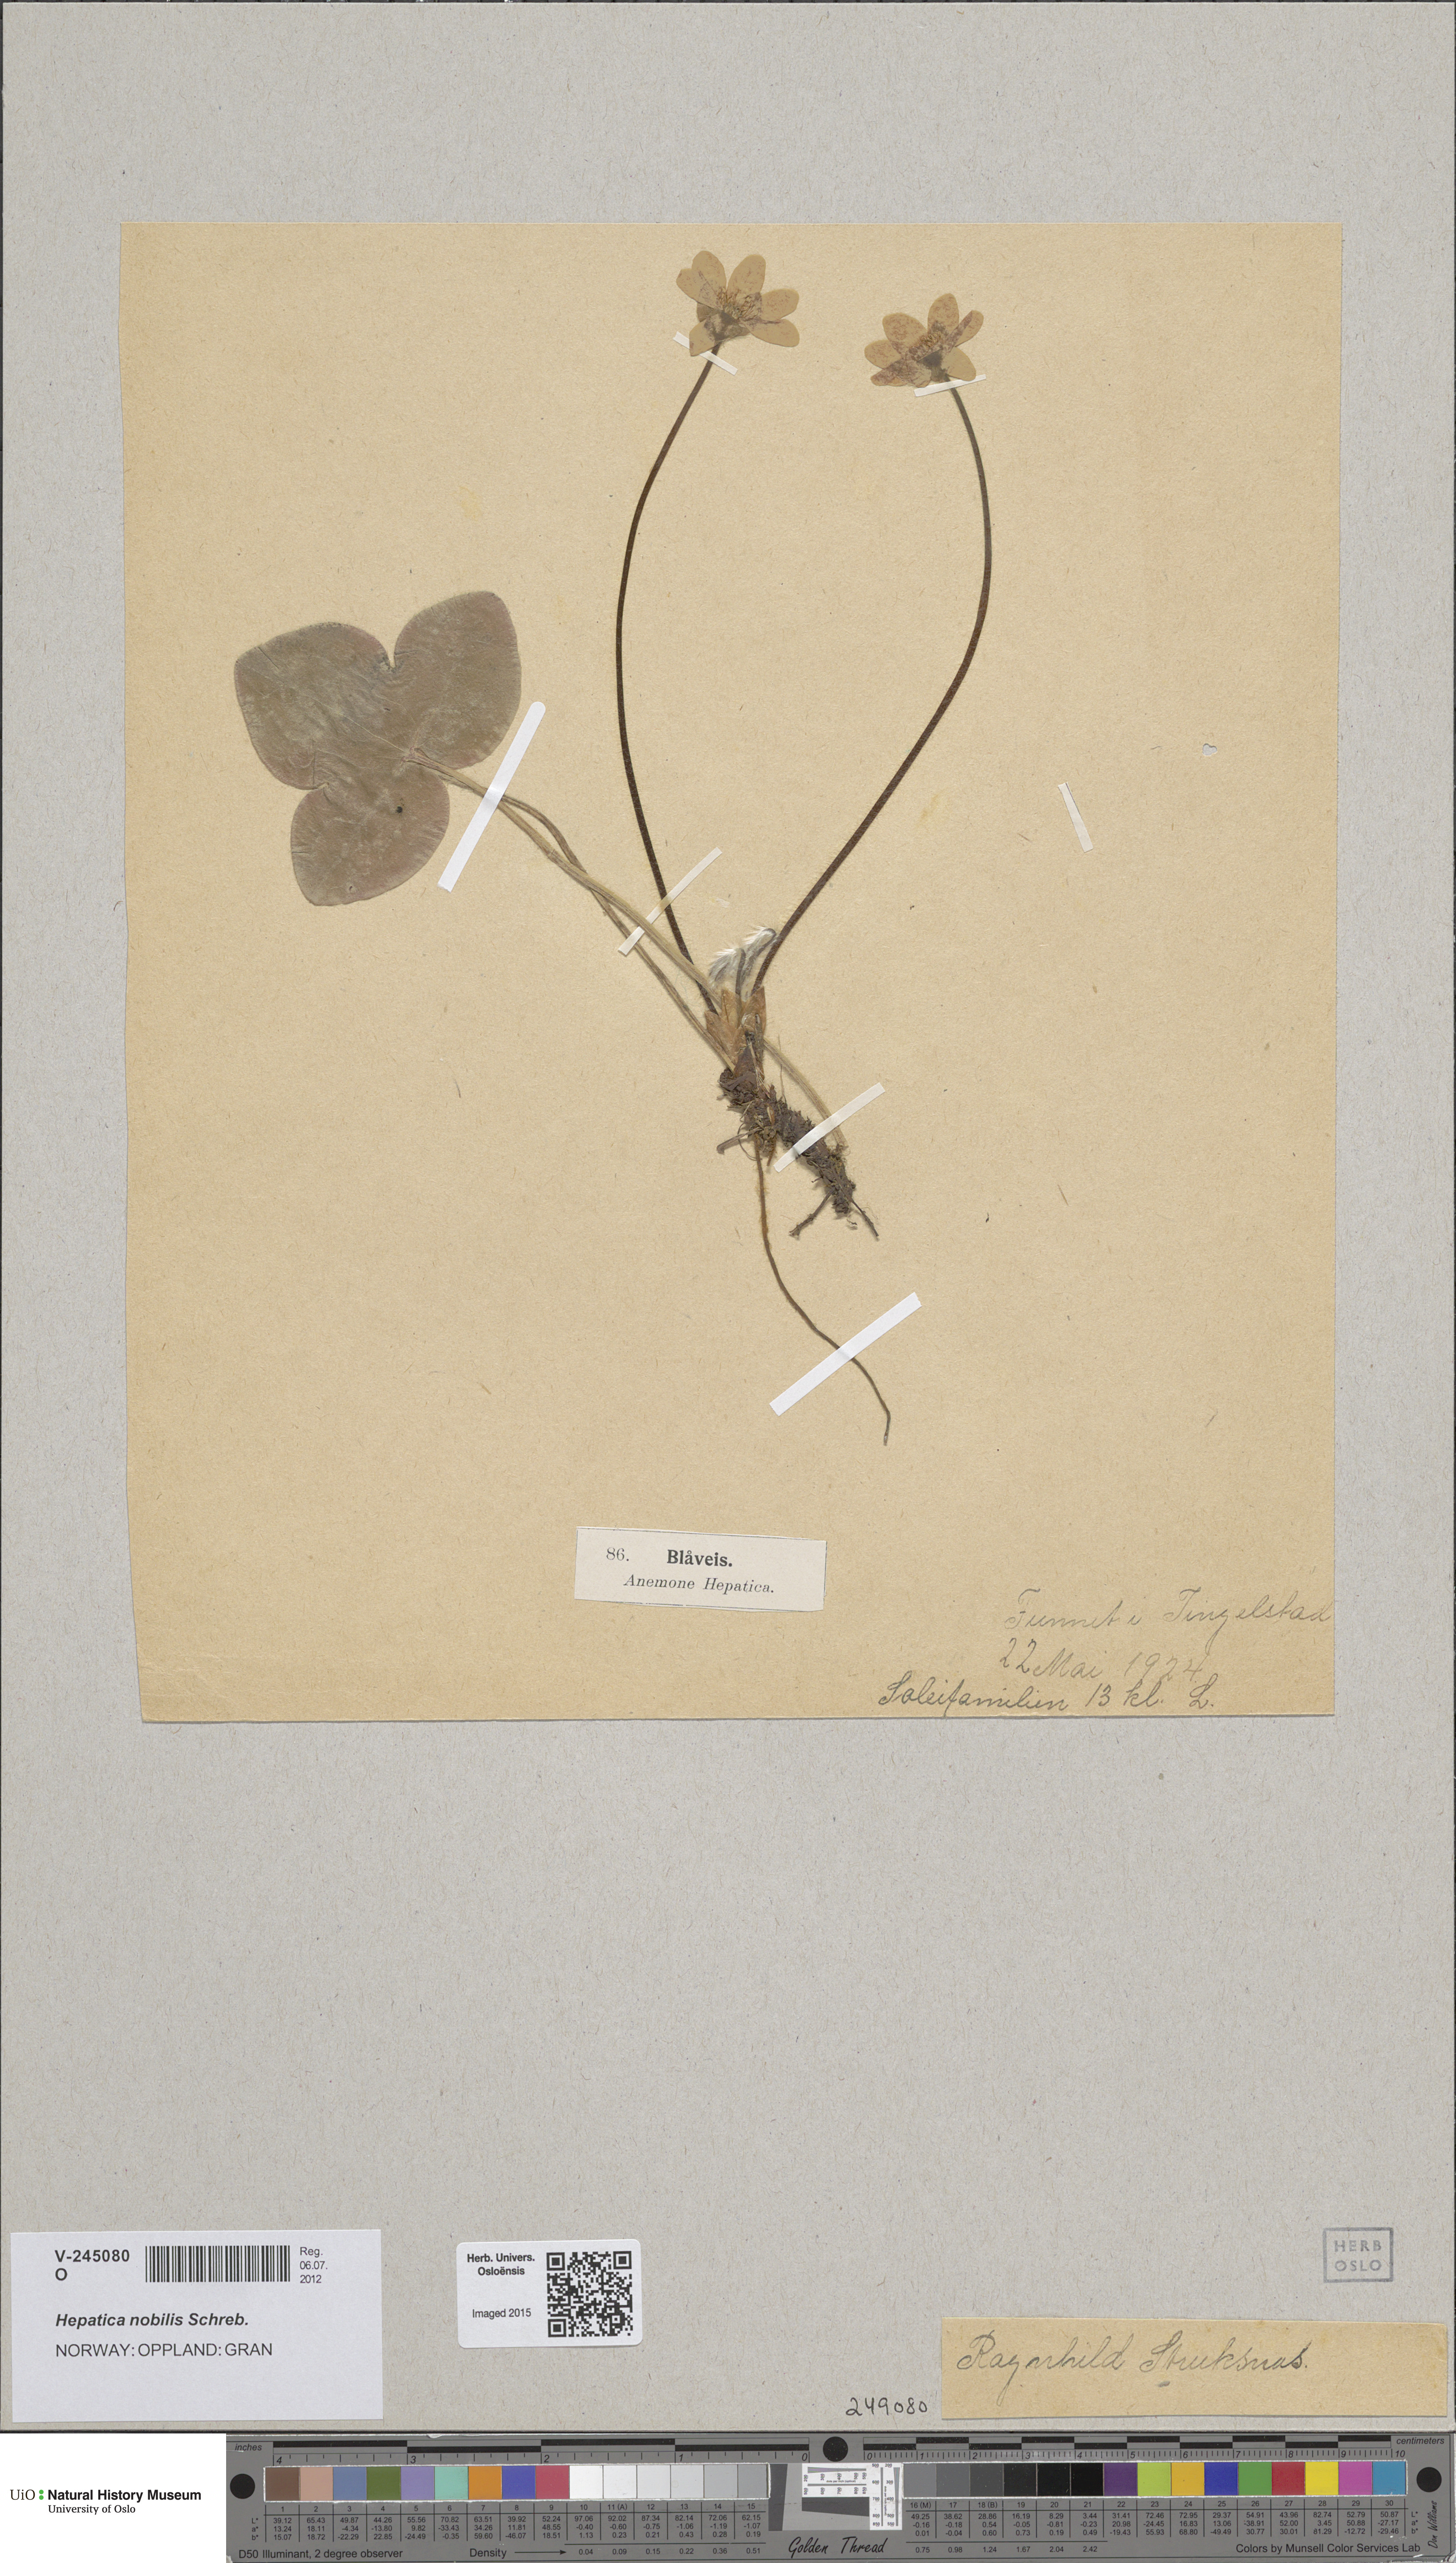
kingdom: Plantae
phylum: Tracheophyta
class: Magnoliopsida
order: Ranunculales
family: Ranunculaceae
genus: Hepatica
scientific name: Hepatica nobilis
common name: Liverleaf
